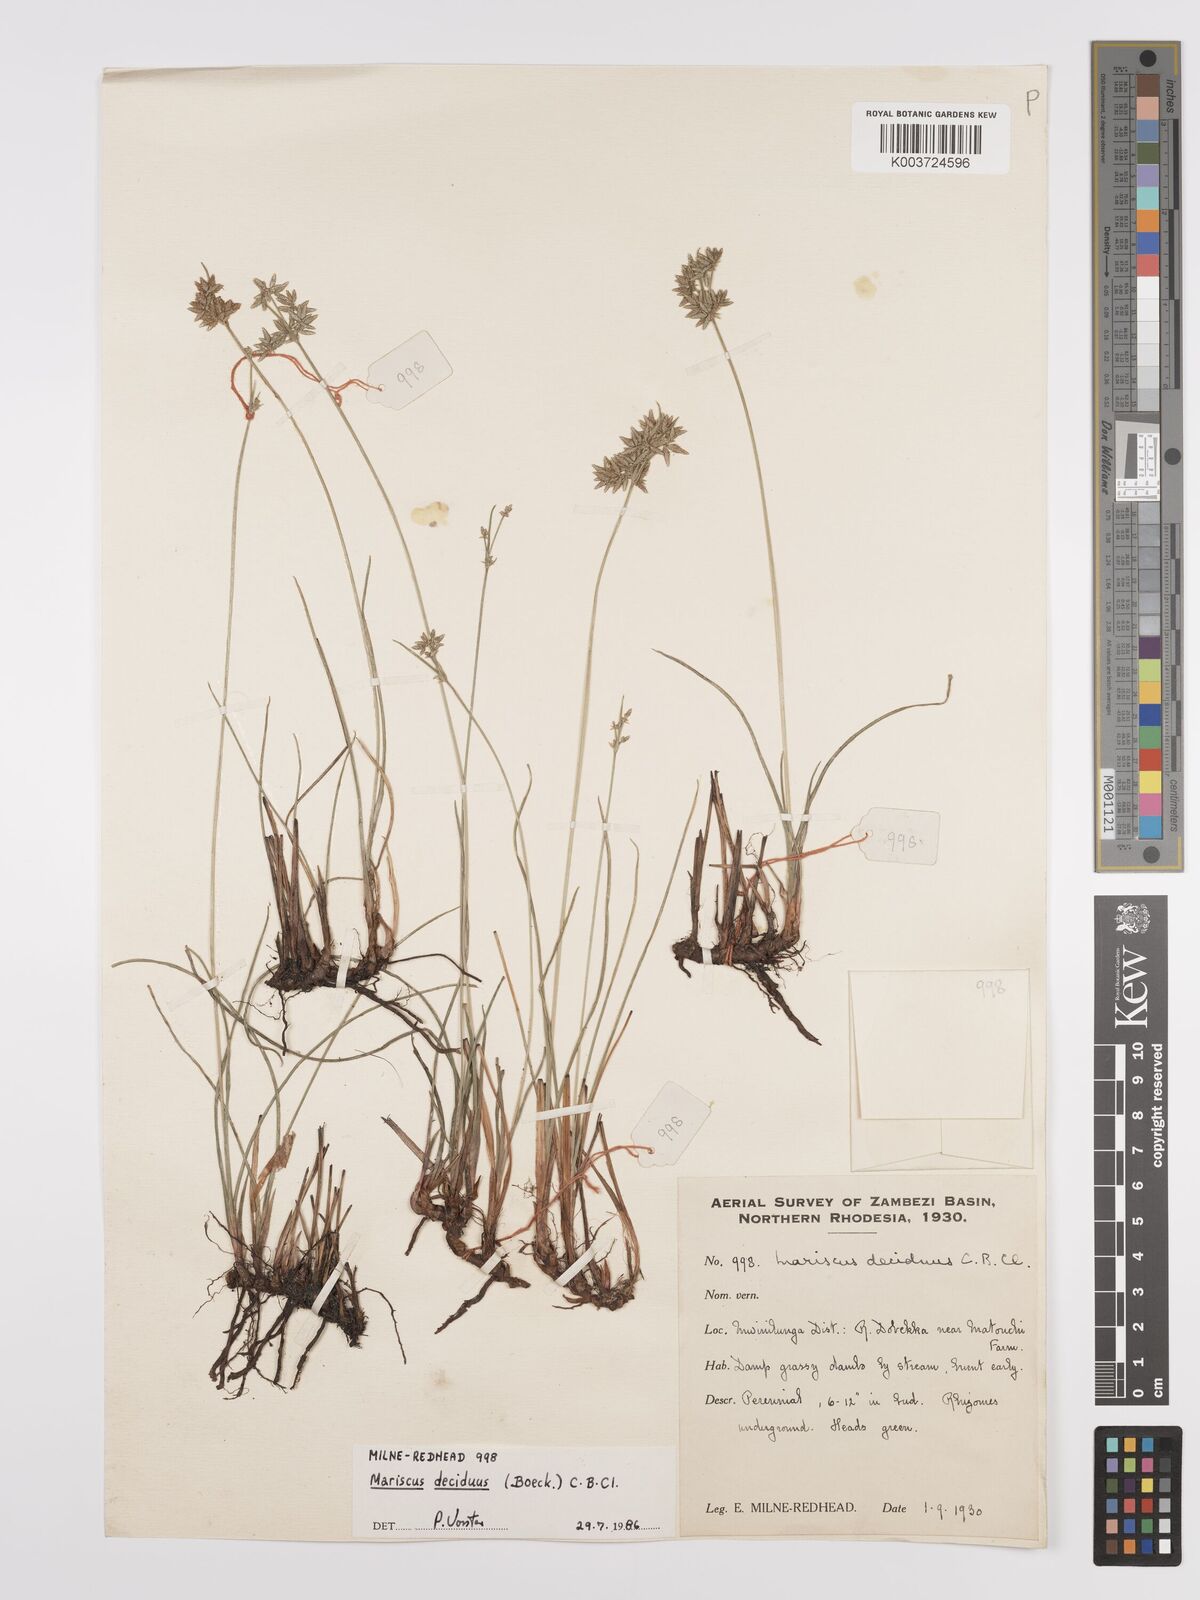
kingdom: Plantae
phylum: Tracheophyta
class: Liliopsida
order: Poales
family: Cyperaceae
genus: Cyperus
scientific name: Cyperus deciduus
